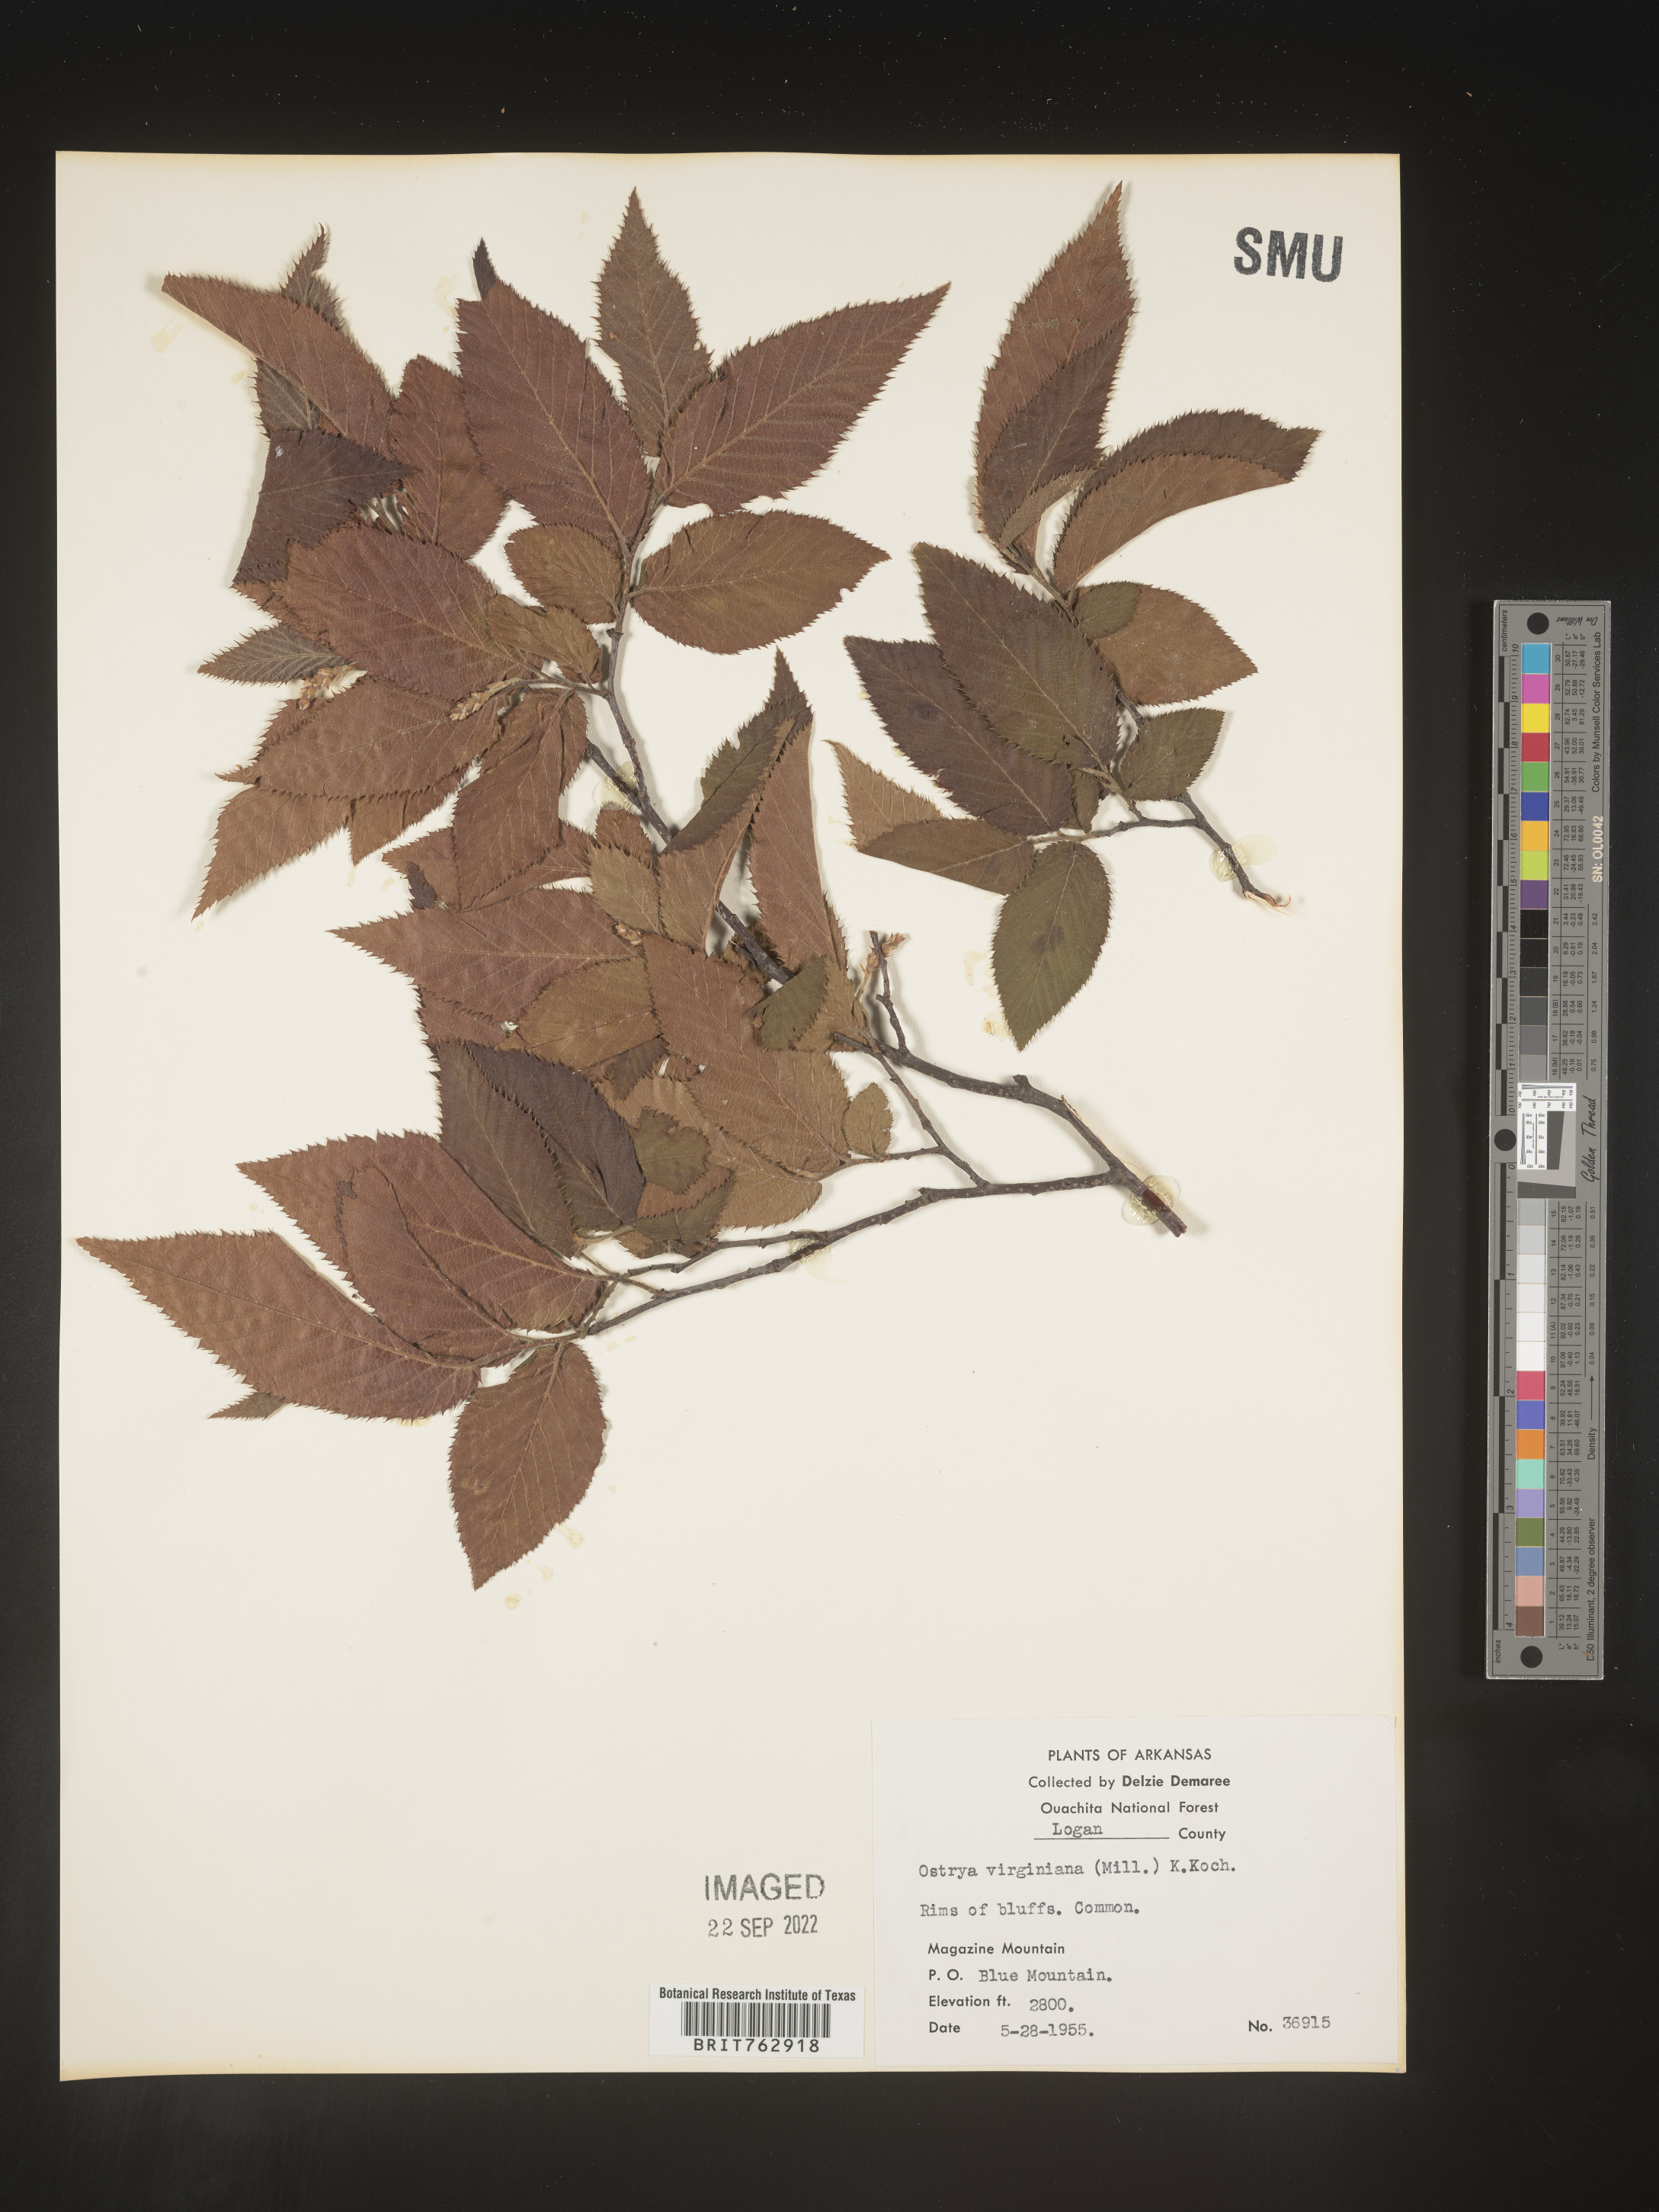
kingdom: Plantae
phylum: Tracheophyta
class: Magnoliopsida
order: Fagales
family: Betulaceae
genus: Ostrya
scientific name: Ostrya virginiana
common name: Ironwood
